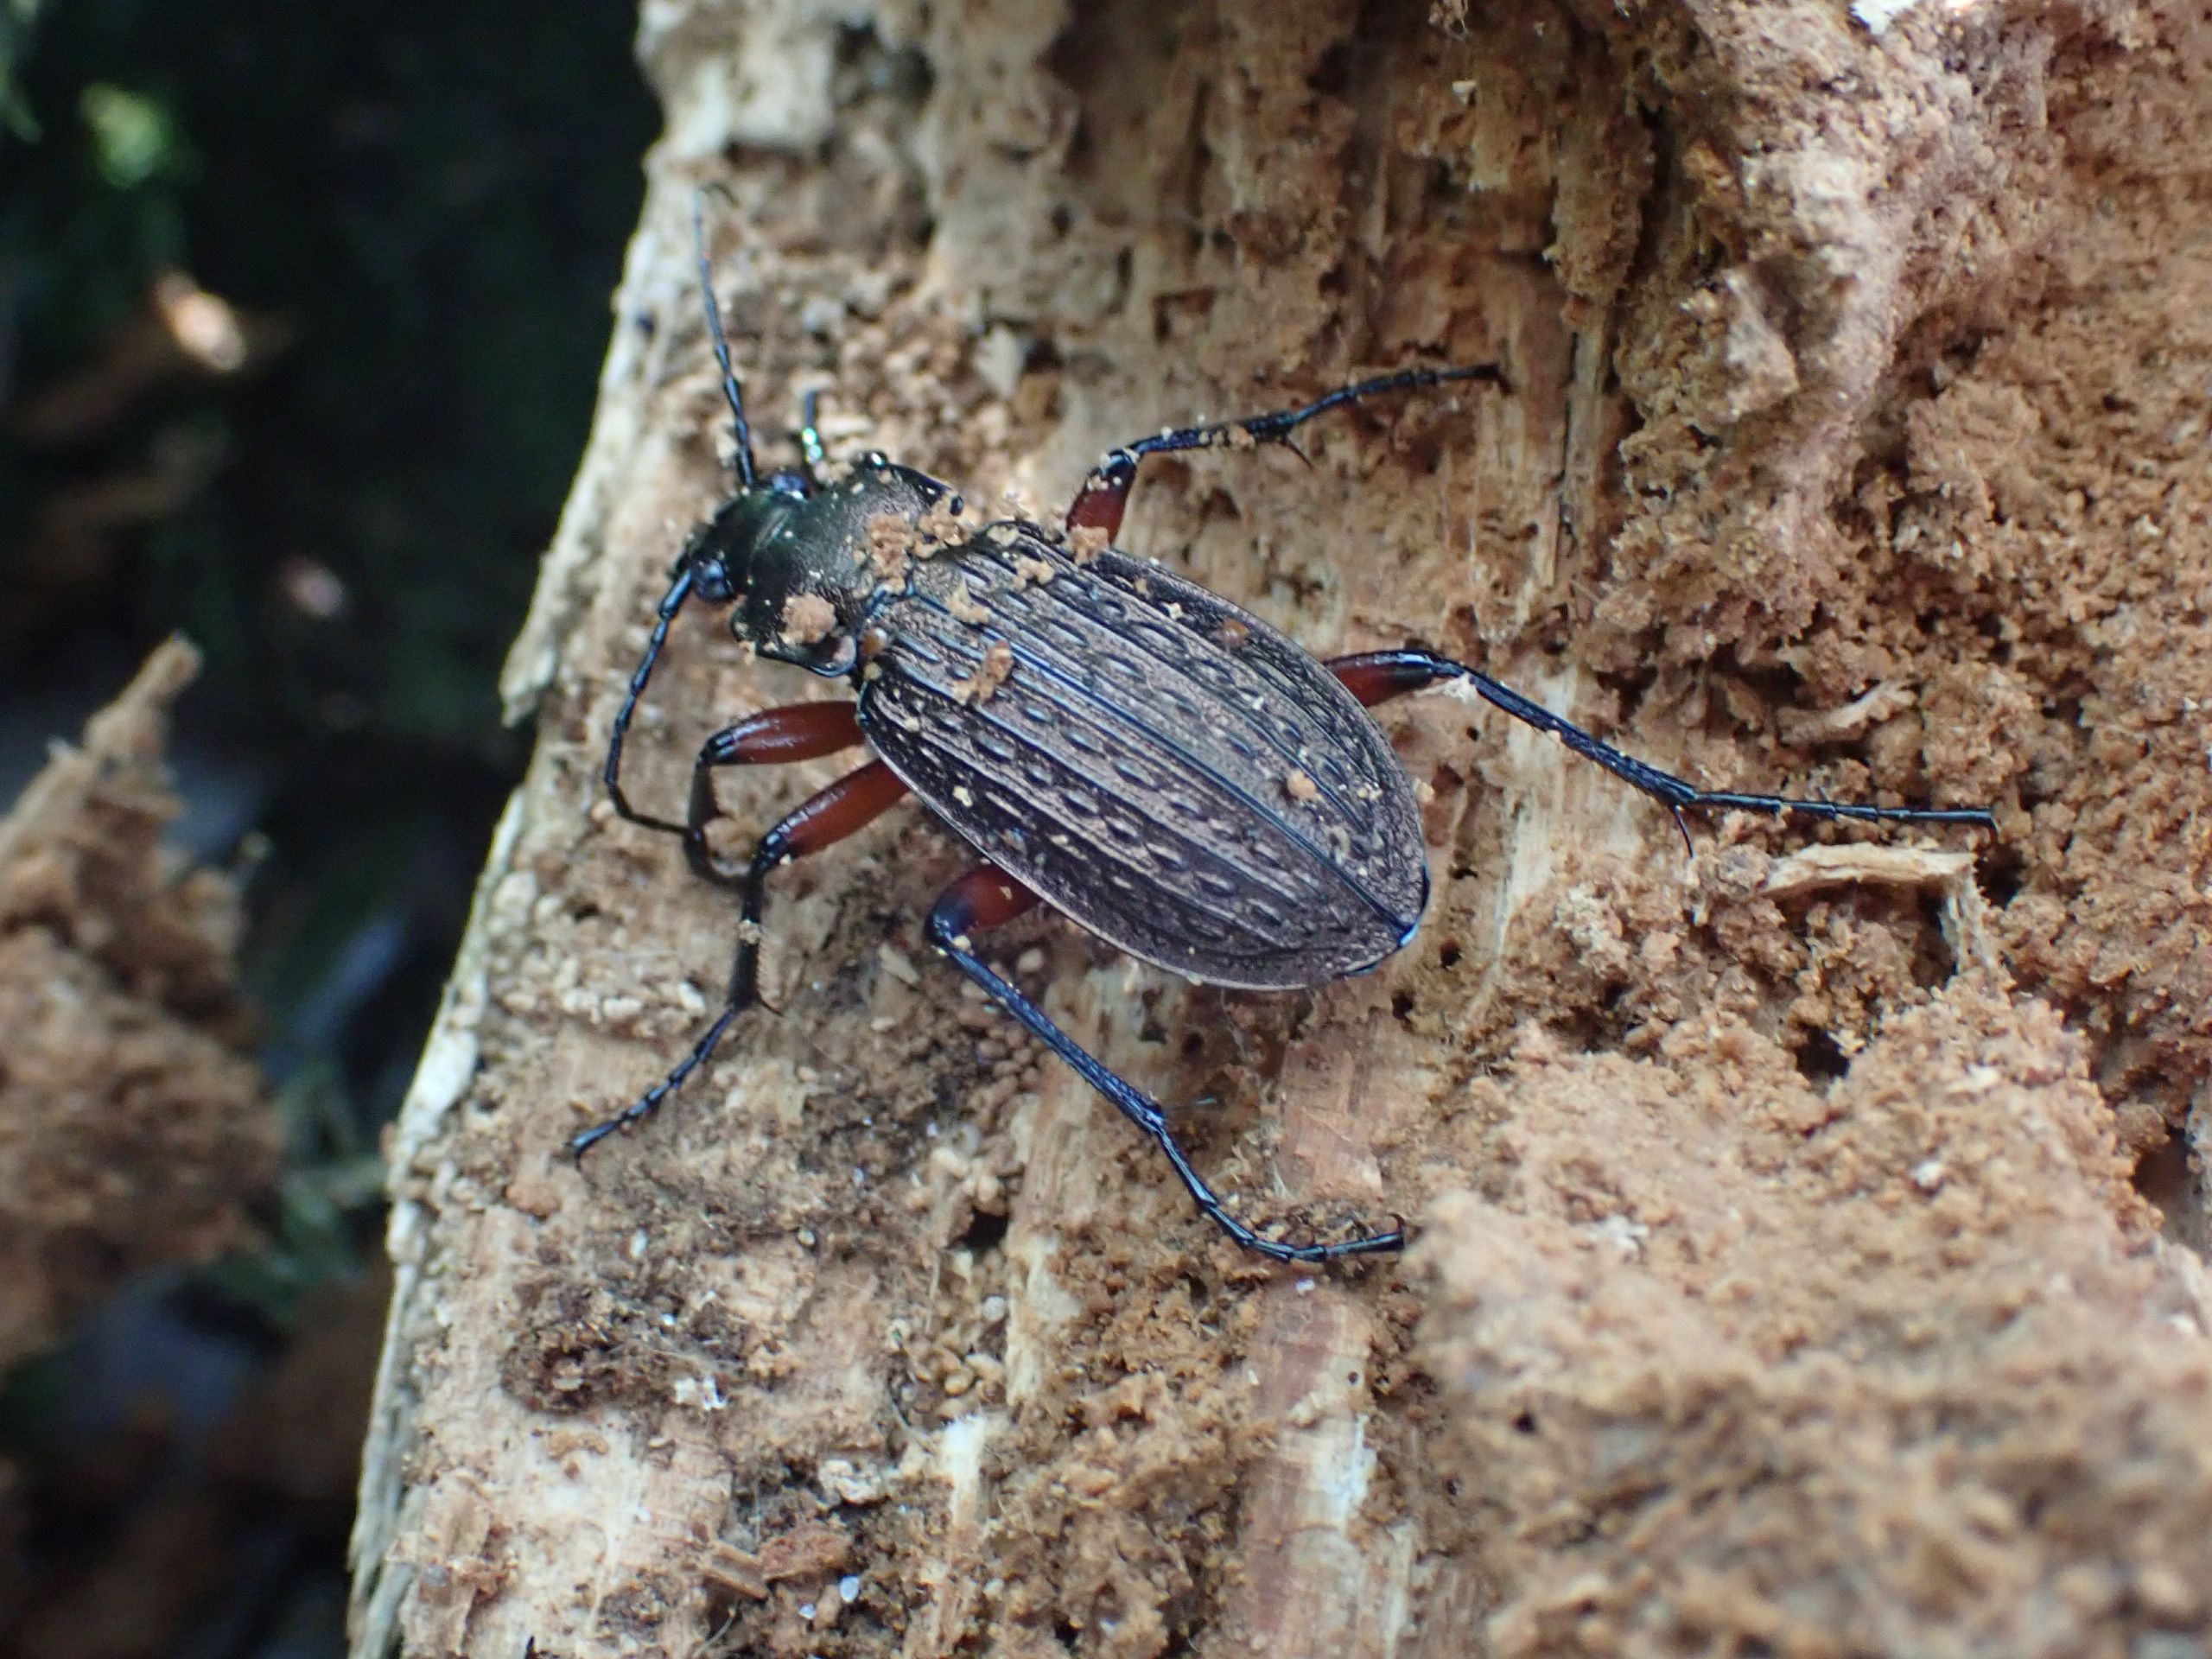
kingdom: Animalia
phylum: Arthropoda
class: Insecta
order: Coleoptera
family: Carabidae
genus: Carabus
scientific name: Carabus granulatus
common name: Kornet løber
